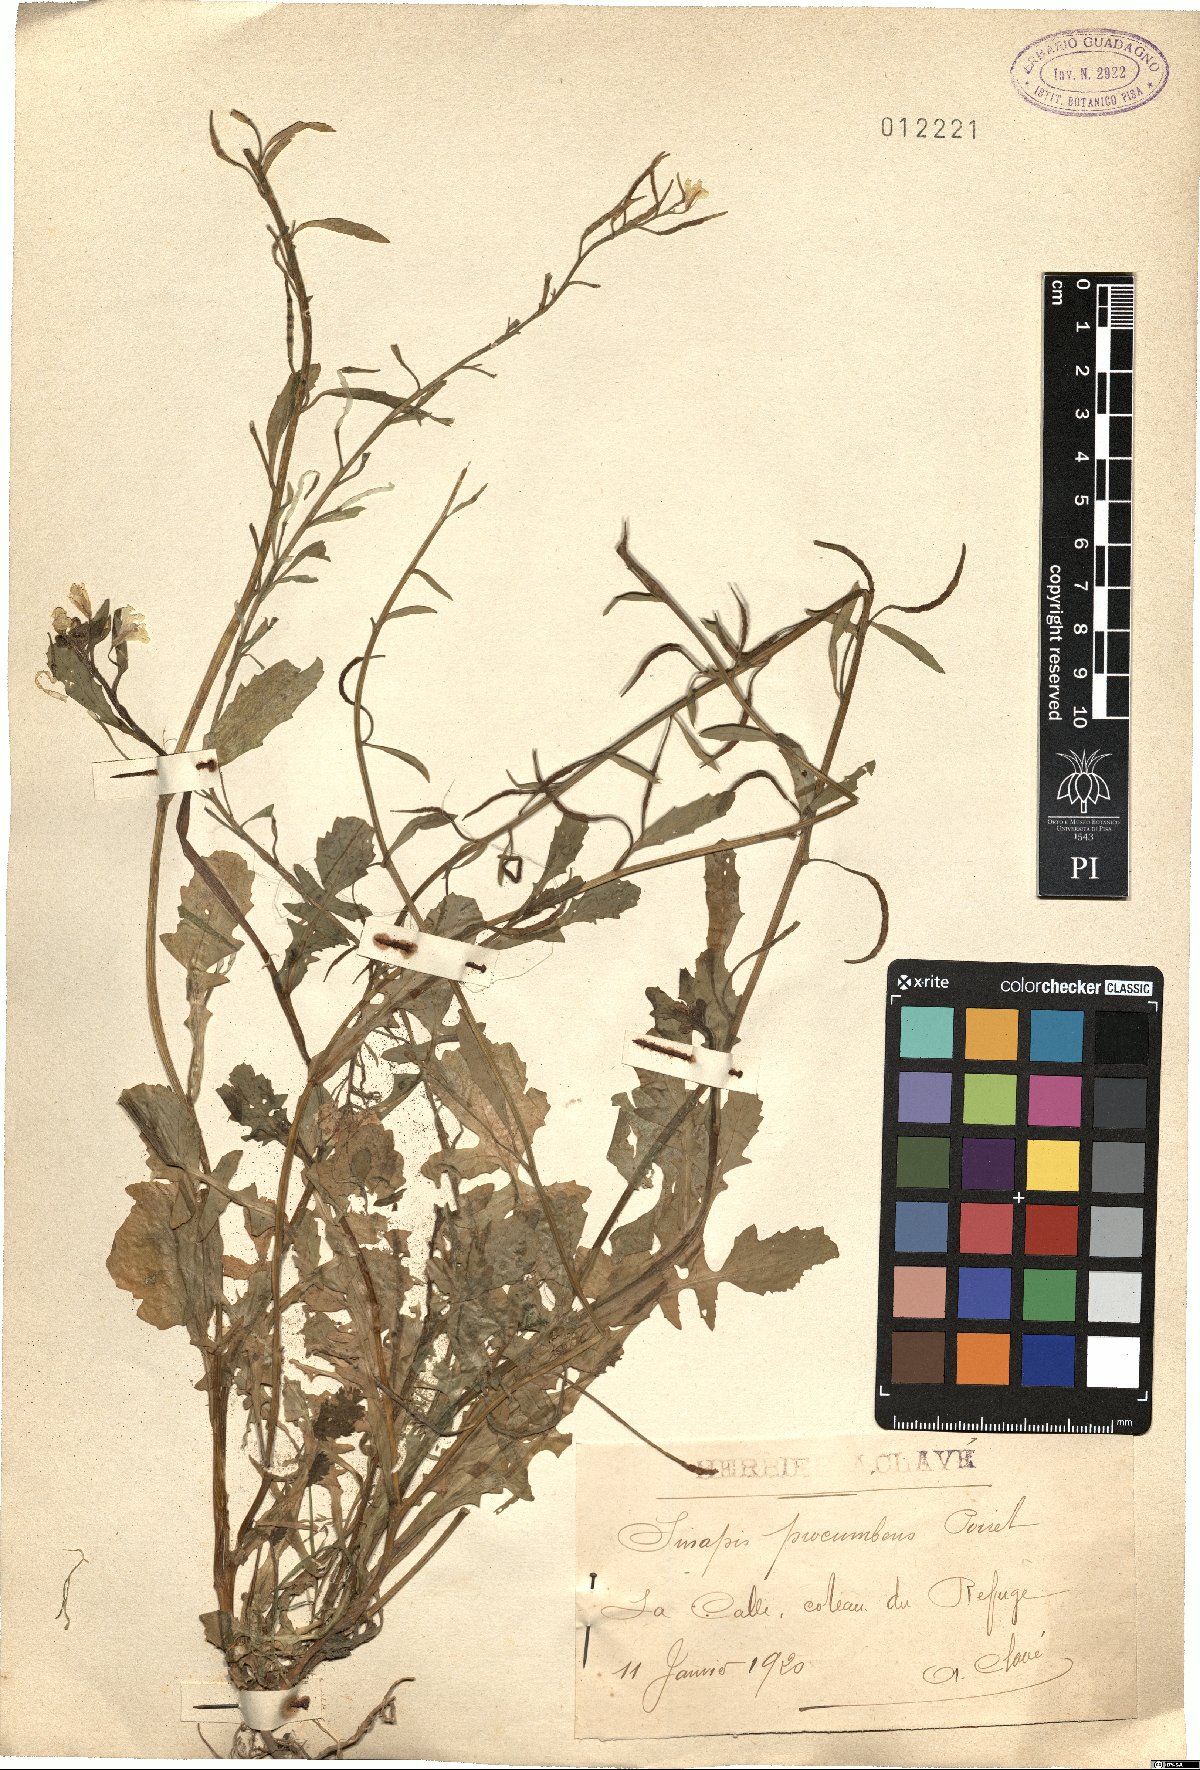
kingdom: Plantae
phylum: Tracheophyta
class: Magnoliopsida
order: Brassicales
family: Brassicaceae
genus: Brassica
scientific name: Brassica procumbens
